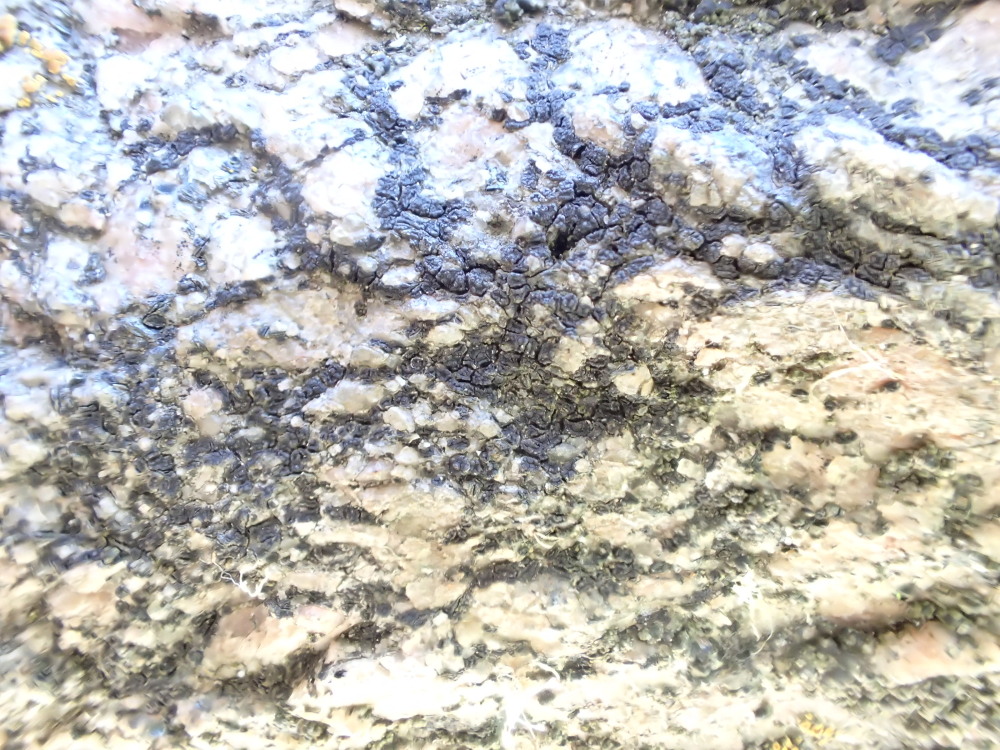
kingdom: Fungi
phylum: Ascomycota
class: Lecanoromycetes
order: Acarosporales
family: Acarosporaceae
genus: Acarospora
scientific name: Acarospora privigna
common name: sort foldekantlav
